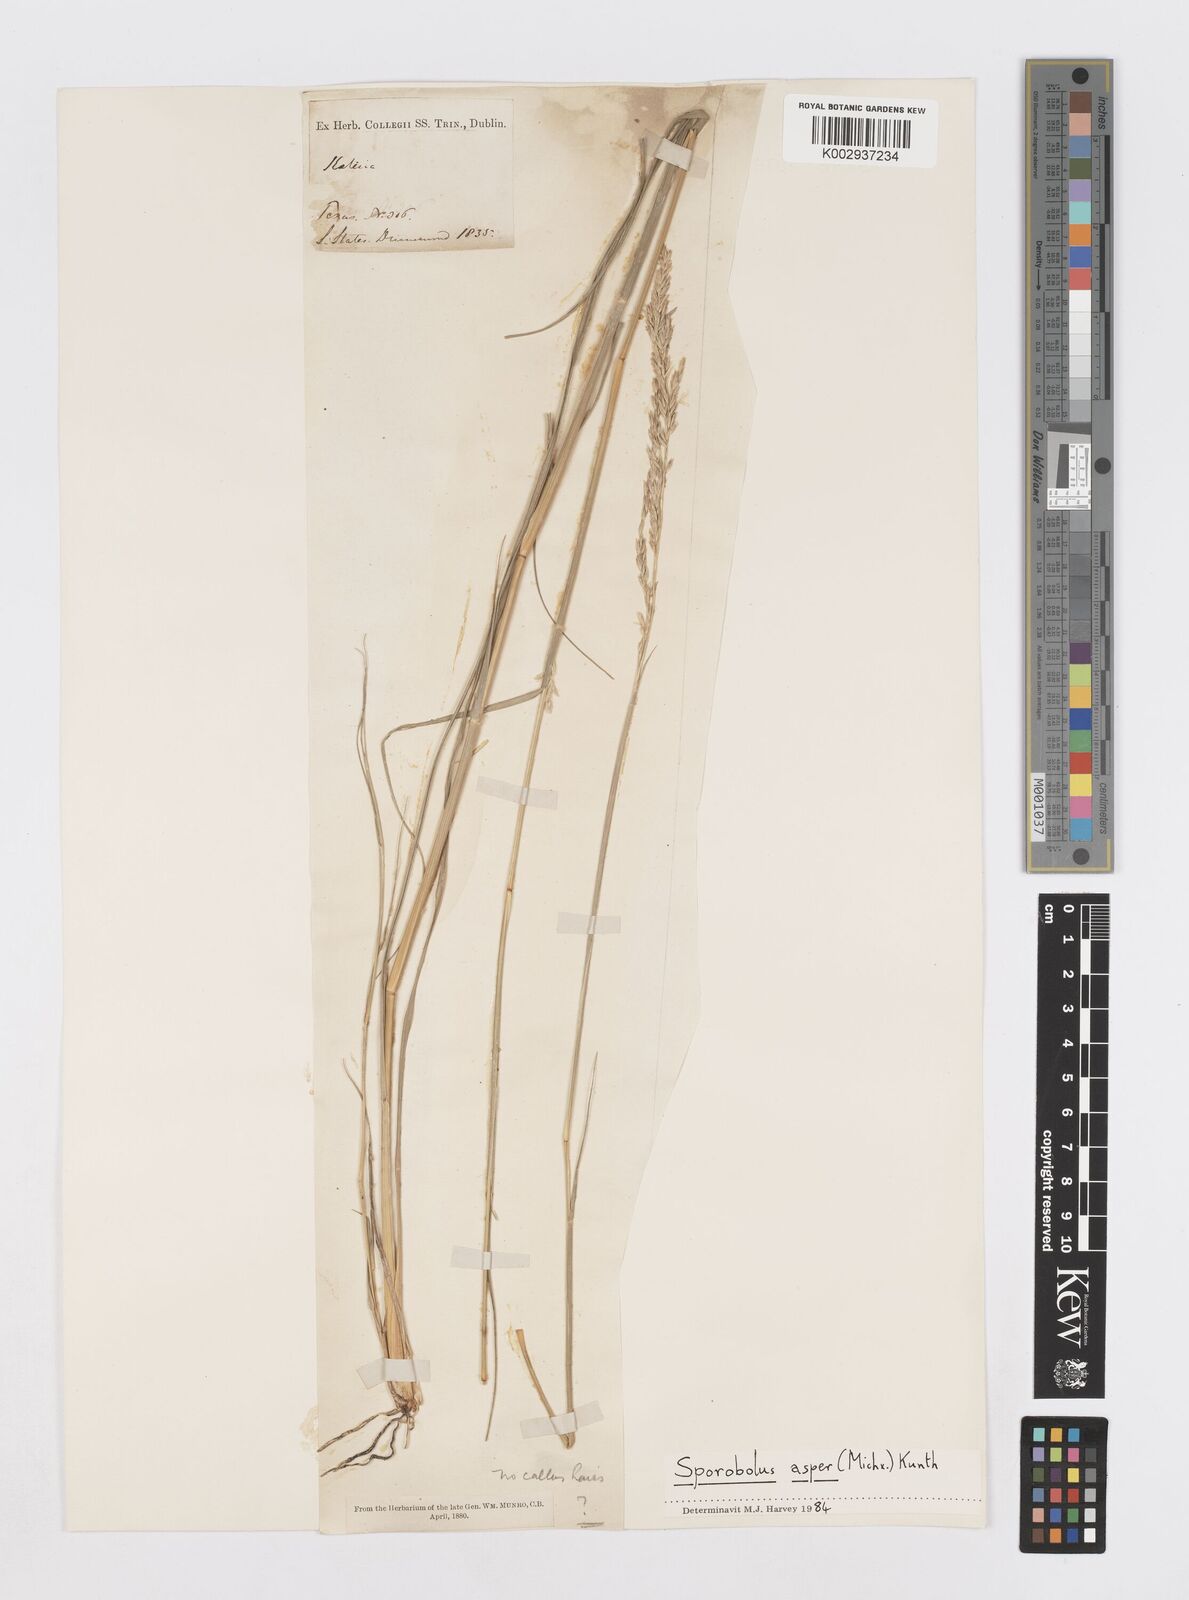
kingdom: Plantae
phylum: Tracheophyta
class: Liliopsida
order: Poales
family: Poaceae
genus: Sporobolus
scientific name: Sporobolus clandestinus
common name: Hidden dropseed
